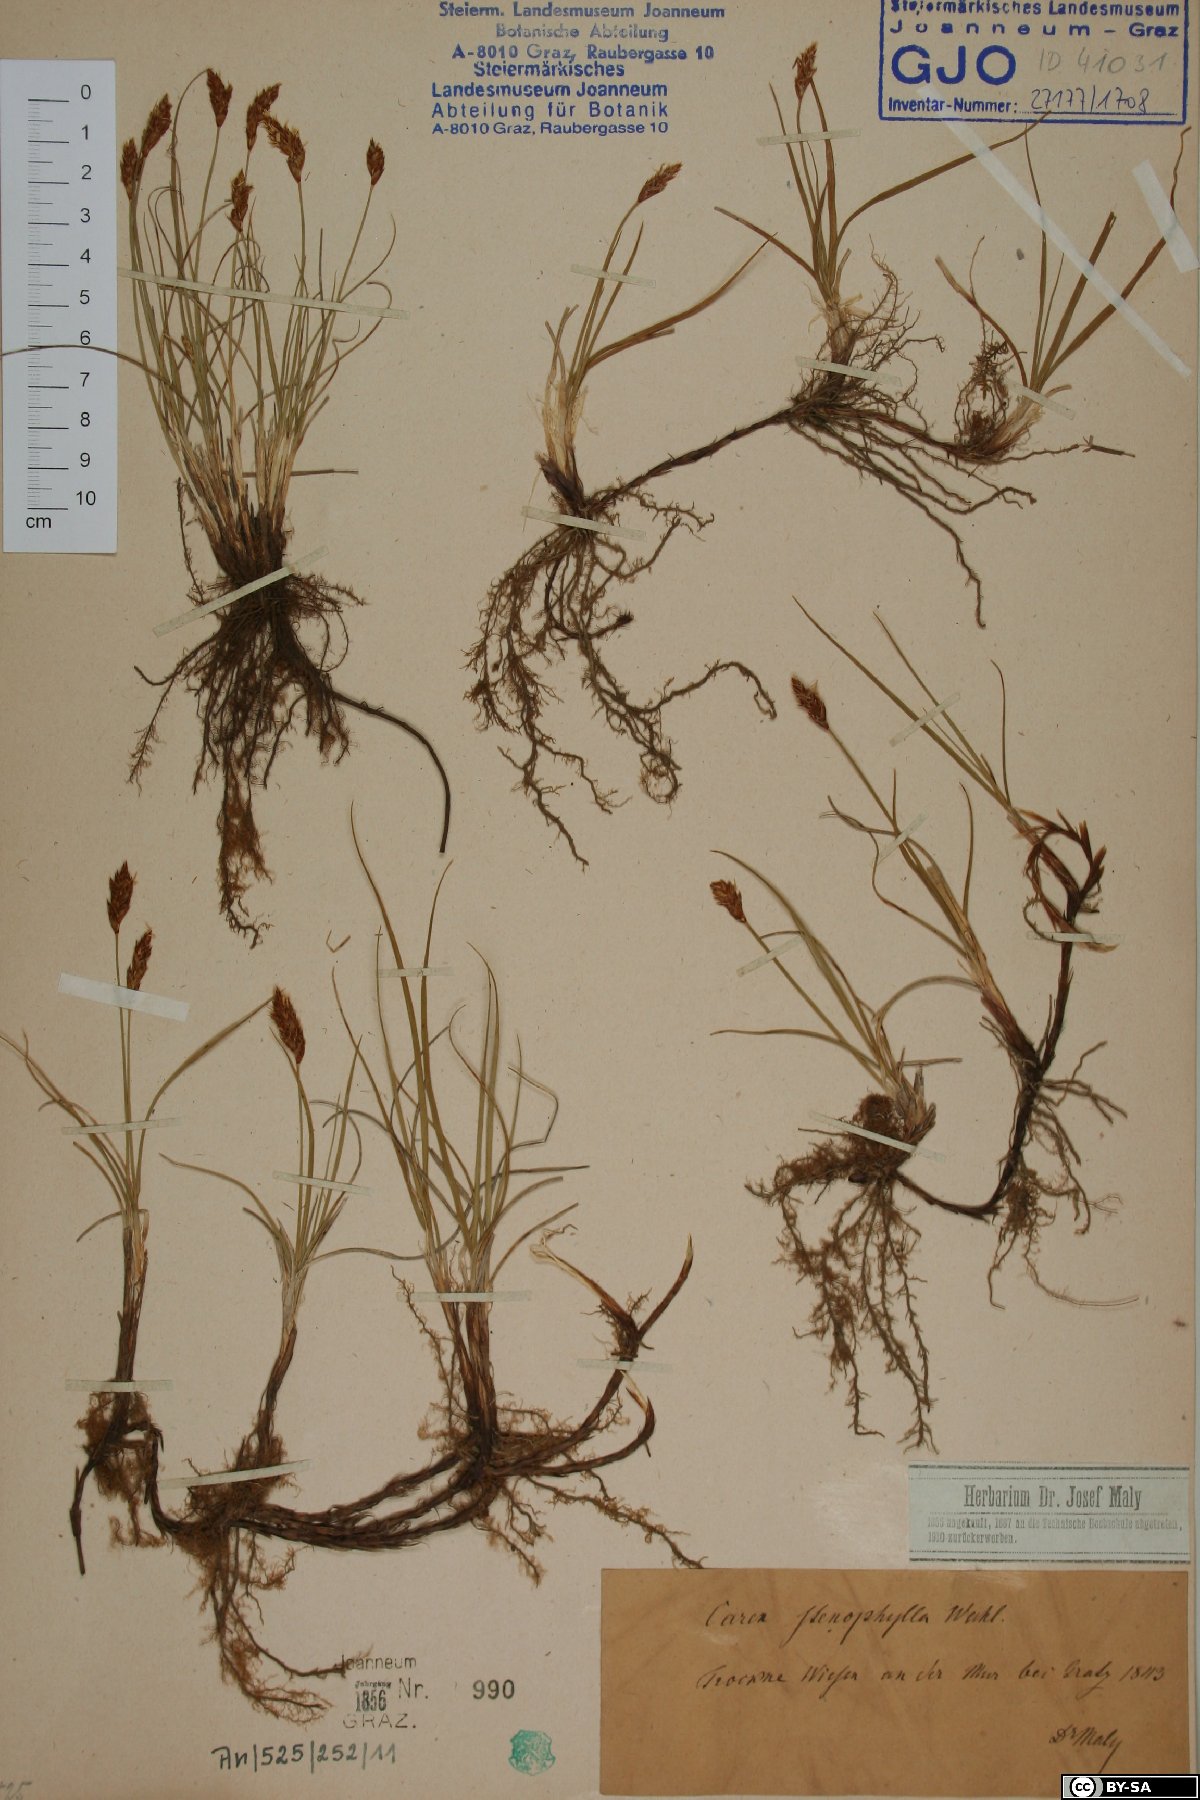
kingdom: Plantae
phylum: Tracheophyta
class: Liliopsida
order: Poales
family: Cyperaceae
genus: Carex
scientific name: Carex stenophylla
